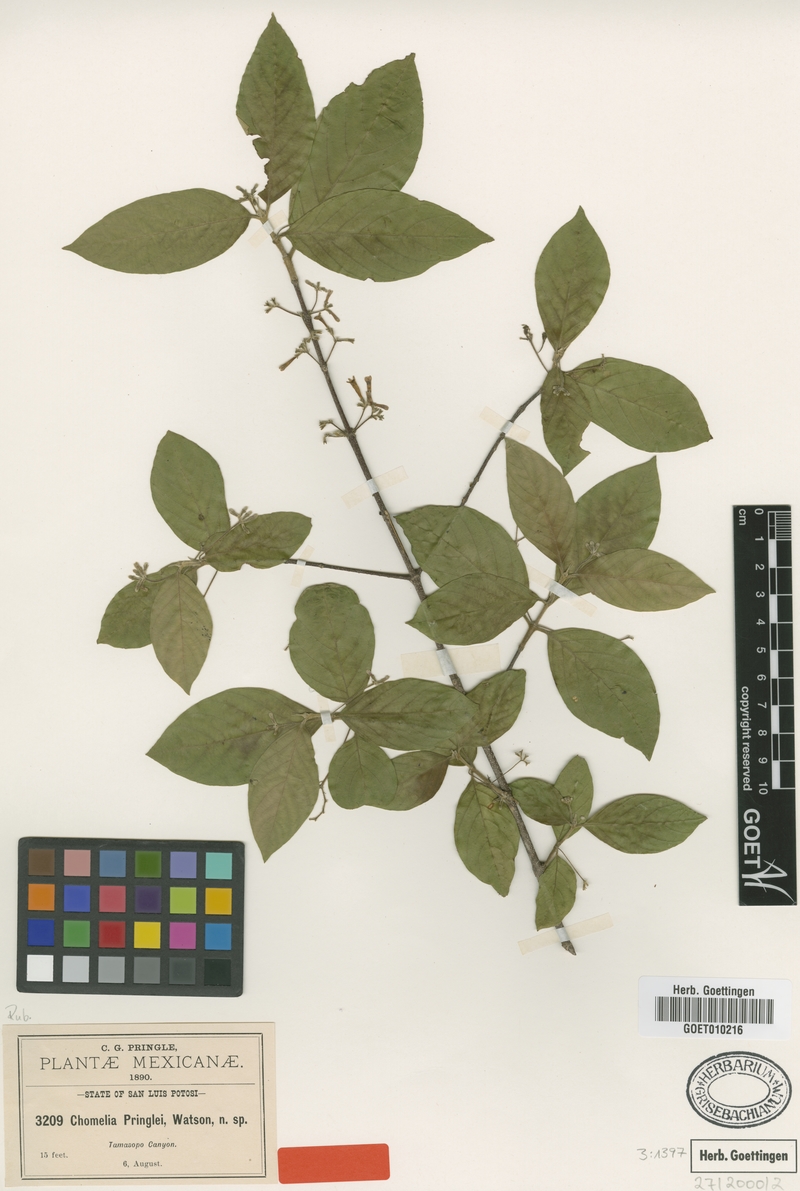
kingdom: Plantae
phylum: Tracheophyta
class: Magnoliopsida
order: Gentianales
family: Rubiaceae
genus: Chomelia
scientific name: Chomelia pringlei
